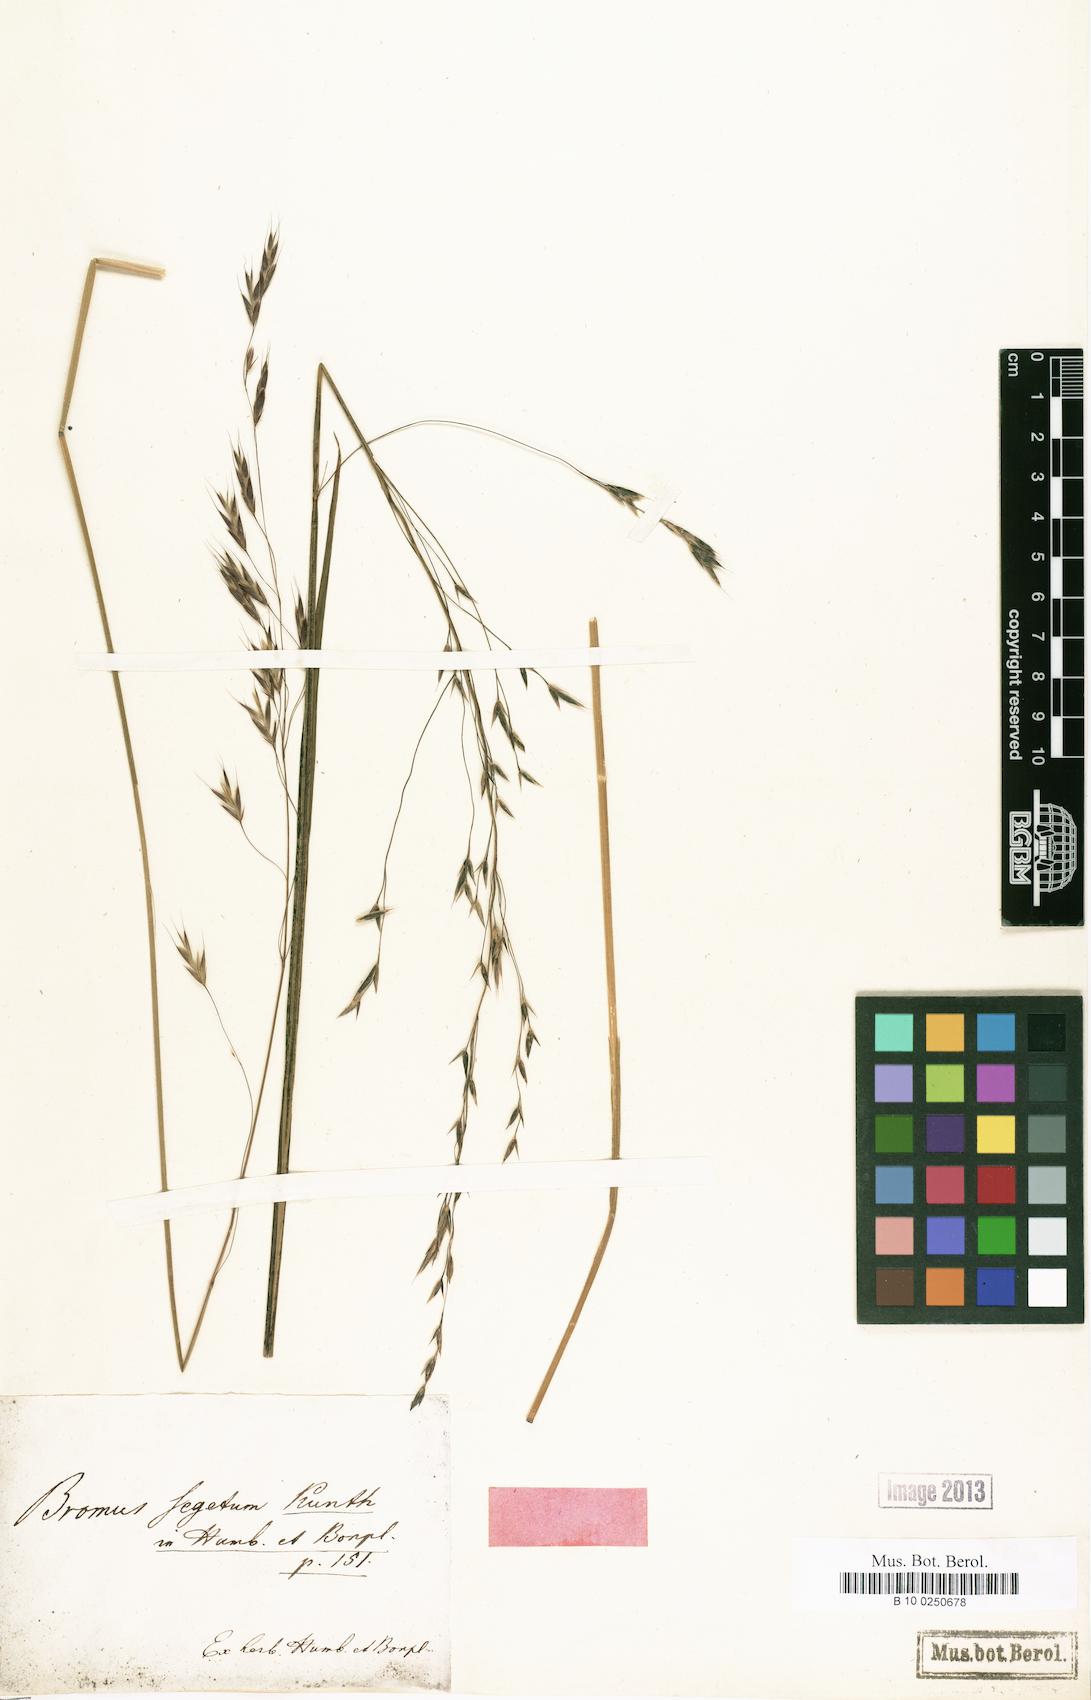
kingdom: Plantae
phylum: Tracheophyta
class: Liliopsida
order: Poales
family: Poaceae
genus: Bromus
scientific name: Bromus segetum
